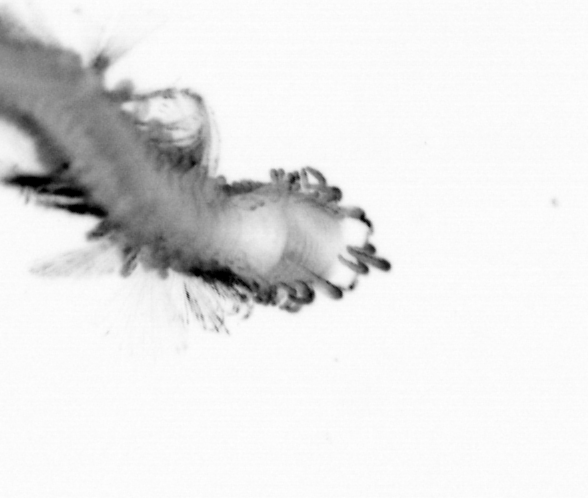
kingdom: Animalia
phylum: Annelida
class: Polychaeta
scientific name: Polychaeta
